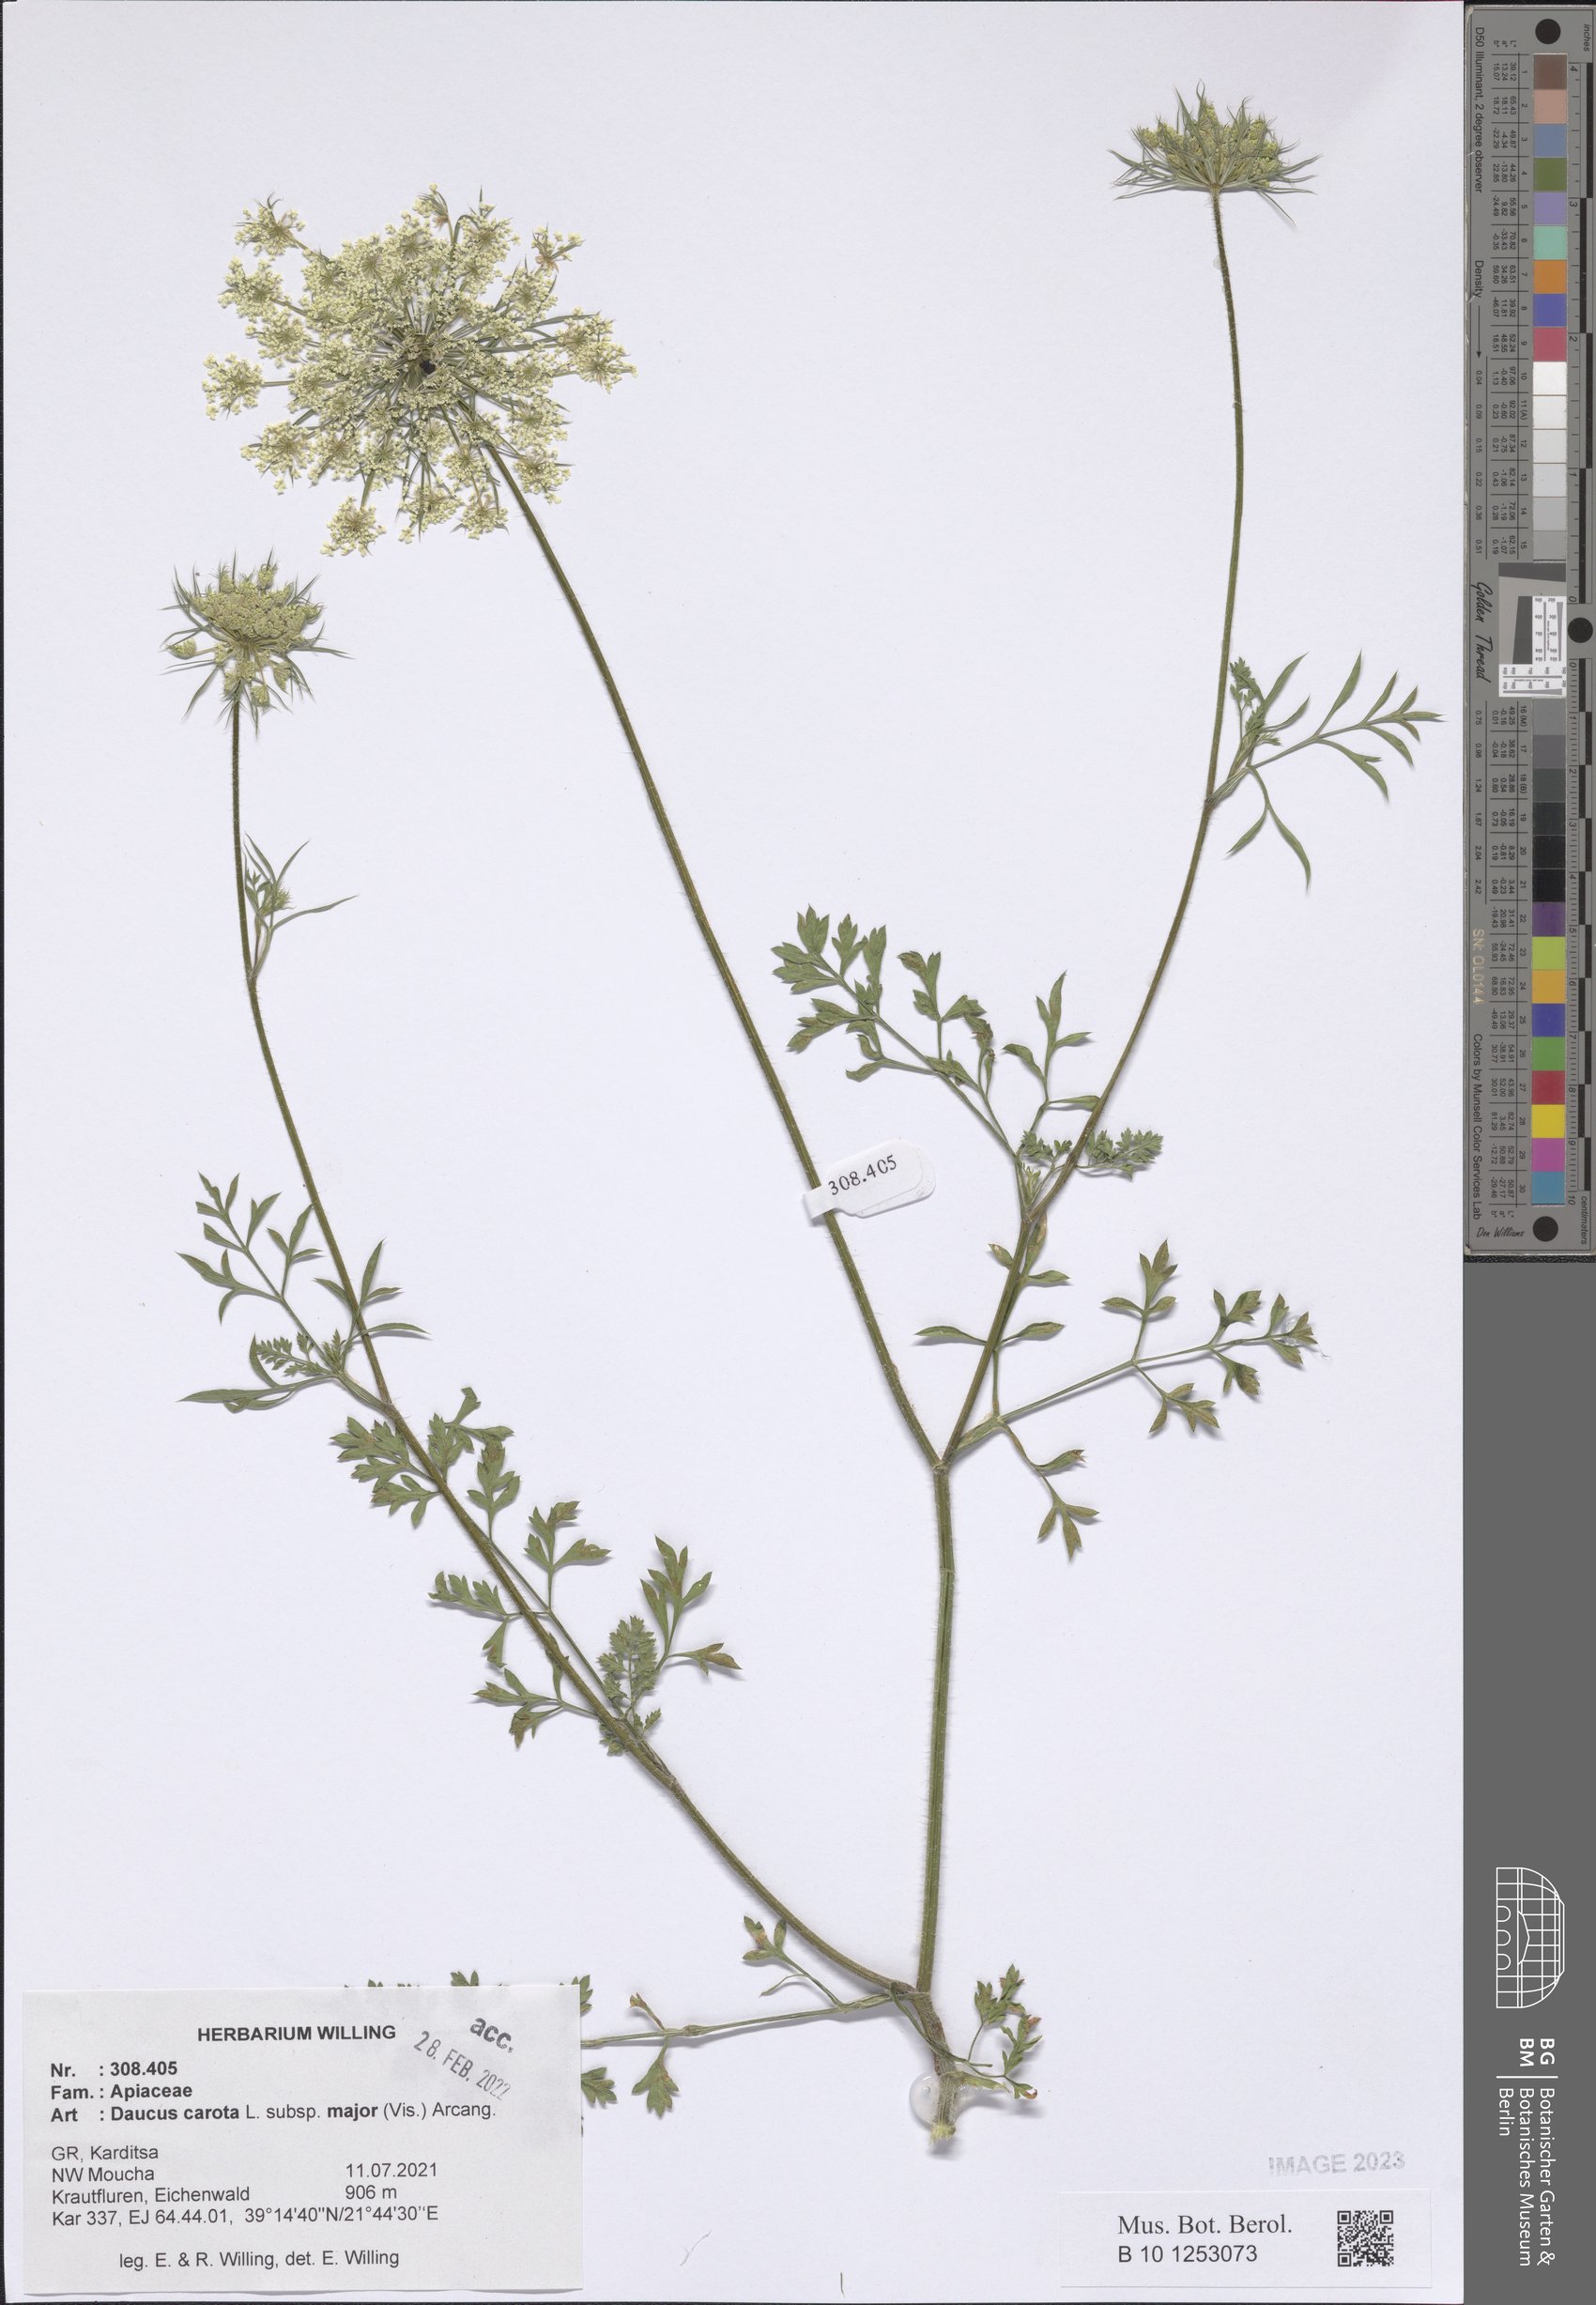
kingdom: Plantae
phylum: Tracheophyta
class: Magnoliopsida
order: Apiales
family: Apiaceae
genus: Daucus
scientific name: Daucus carota
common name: Wild carrot
